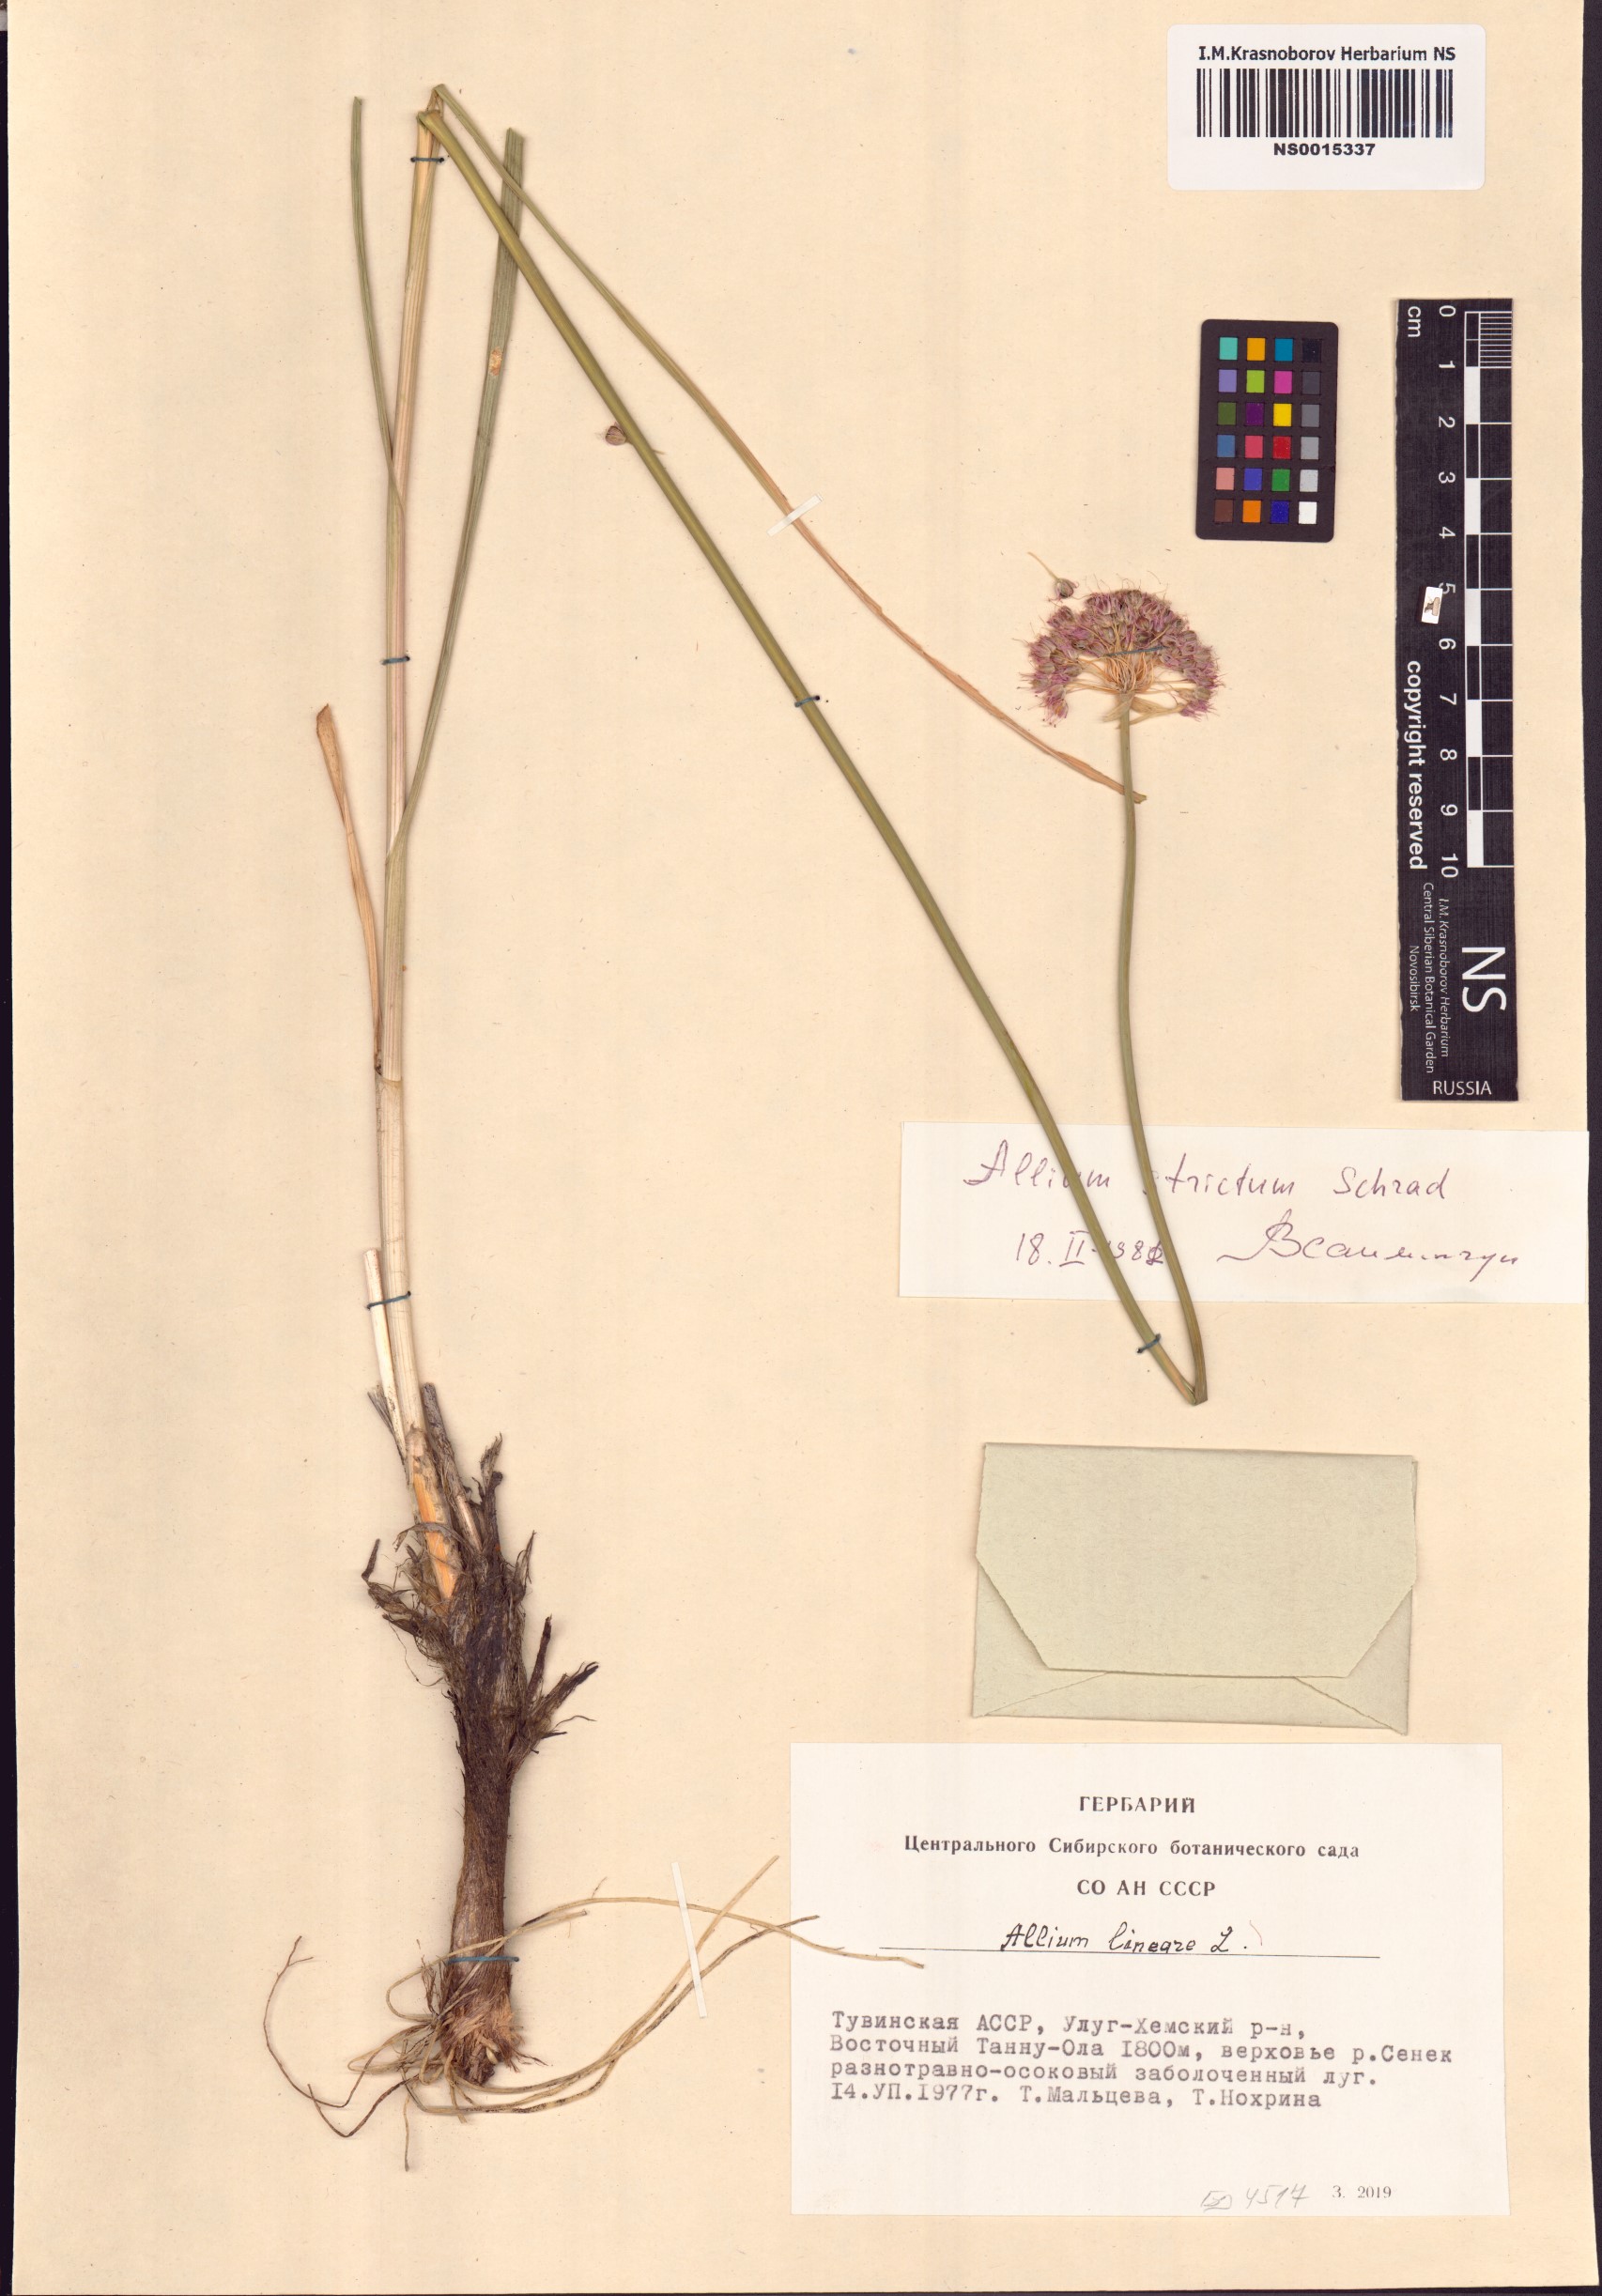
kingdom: Plantae
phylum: Tracheophyta
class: Liliopsida
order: Asparagales
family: Amaryllidaceae
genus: Allium
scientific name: Allium strictum
